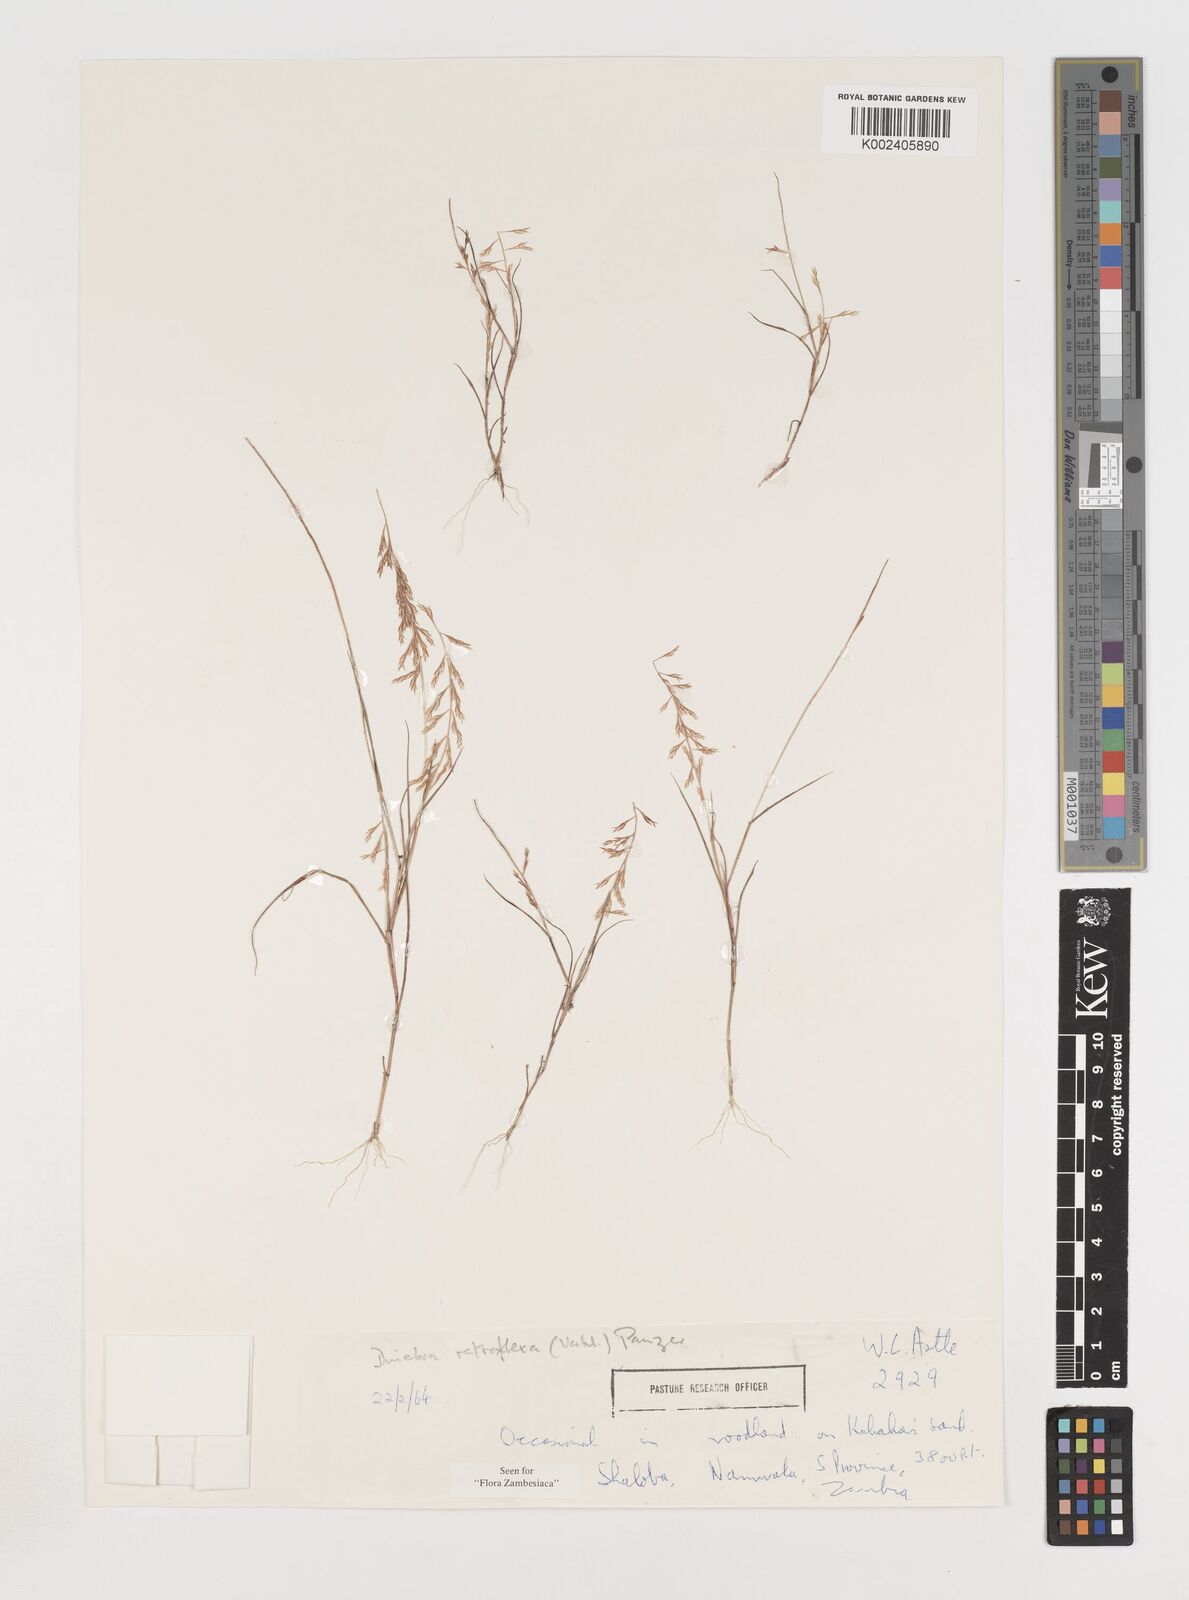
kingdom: Plantae
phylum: Tracheophyta
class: Liliopsida
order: Poales
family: Poaceae
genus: Pogonarthria
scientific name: Pogonarthria refracta
